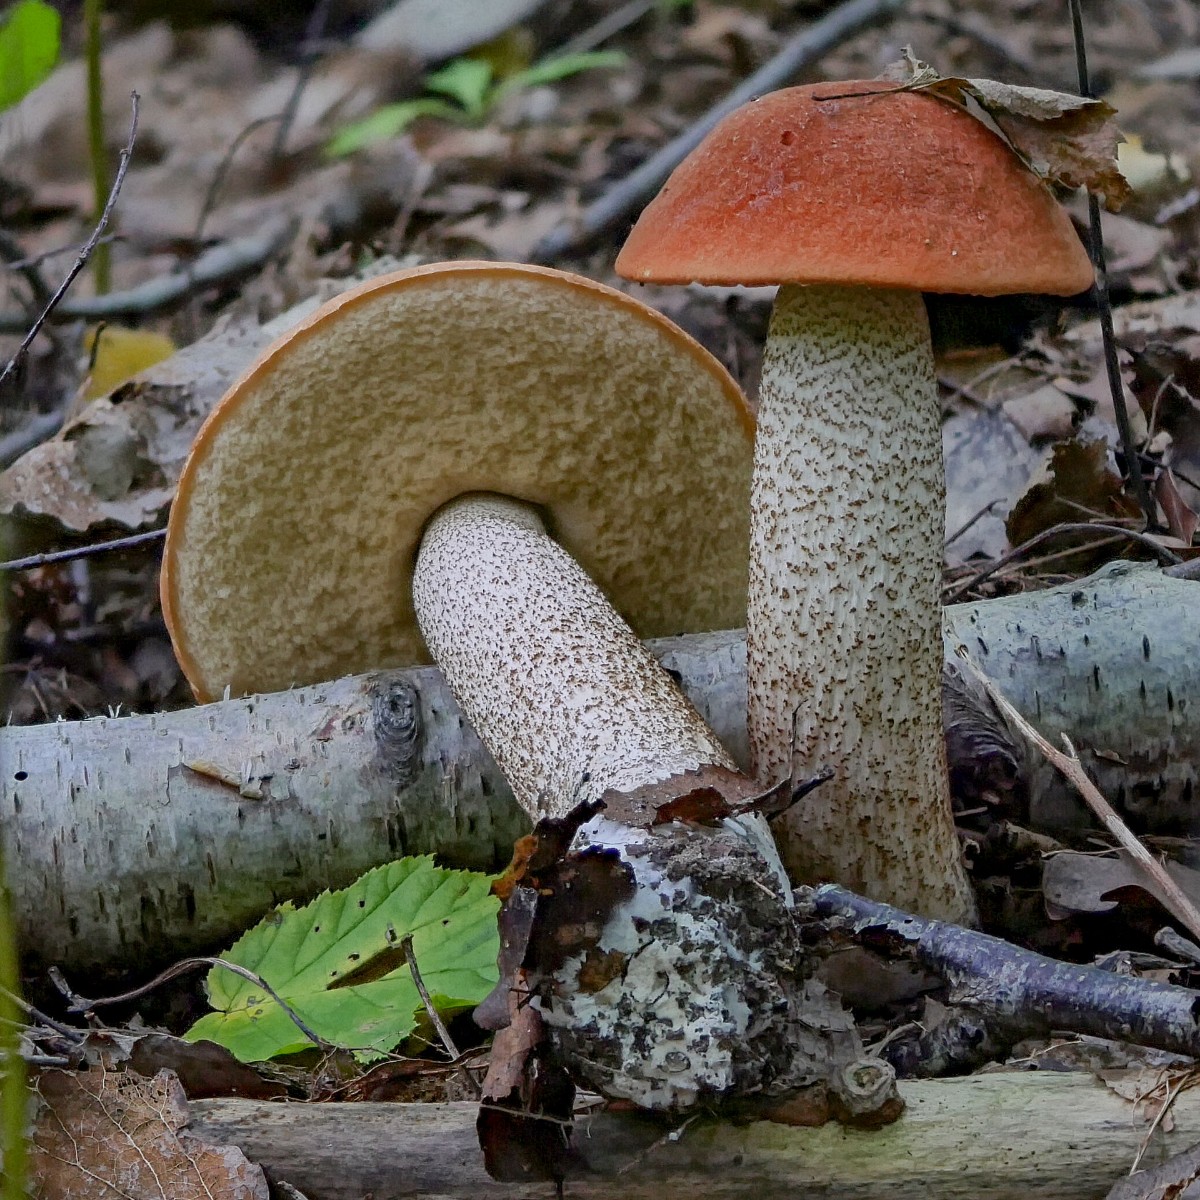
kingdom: Fungi
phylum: Basidiomycota
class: Agaricomycetes
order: Boletales
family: Boletaceae
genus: Leccinum
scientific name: Leccinum albostipitatum
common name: aspe-skælrørhat
